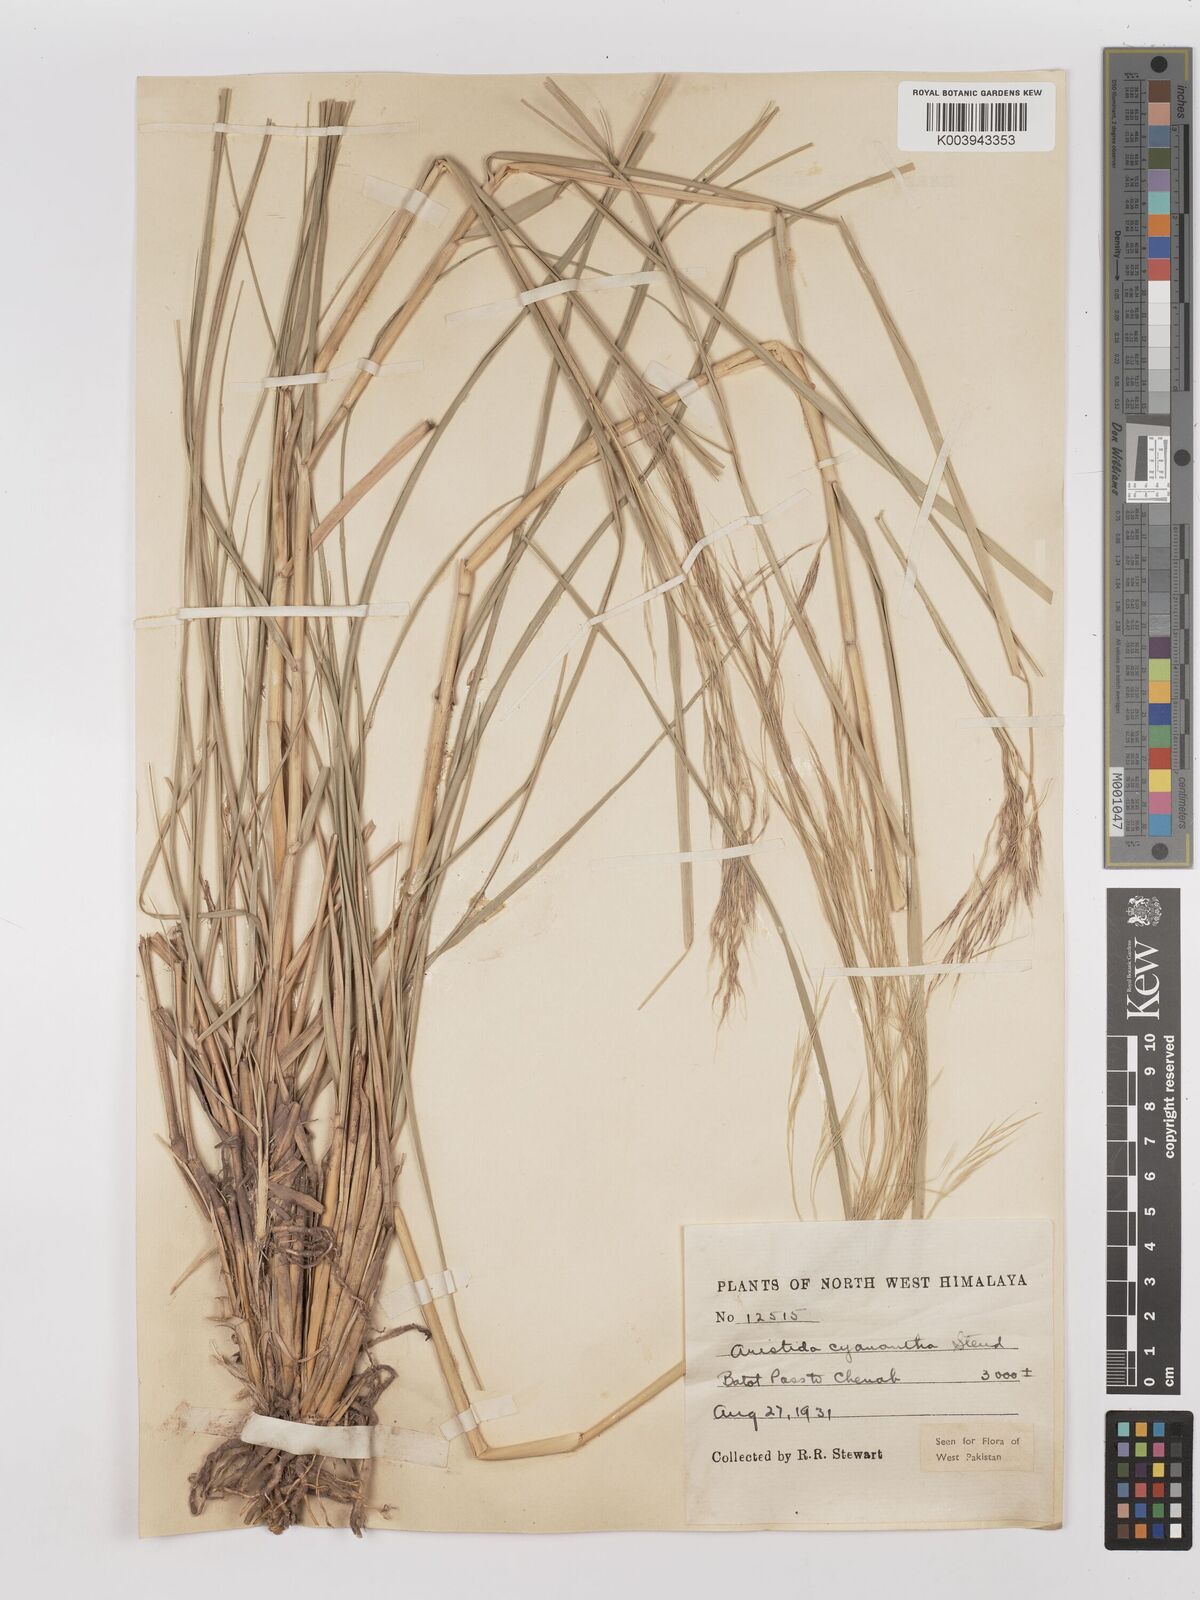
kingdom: Plantae
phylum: Tracheophyta
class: Liliopsida
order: Poales
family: Poaceae
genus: Aristida
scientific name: Aristida cyanantha
